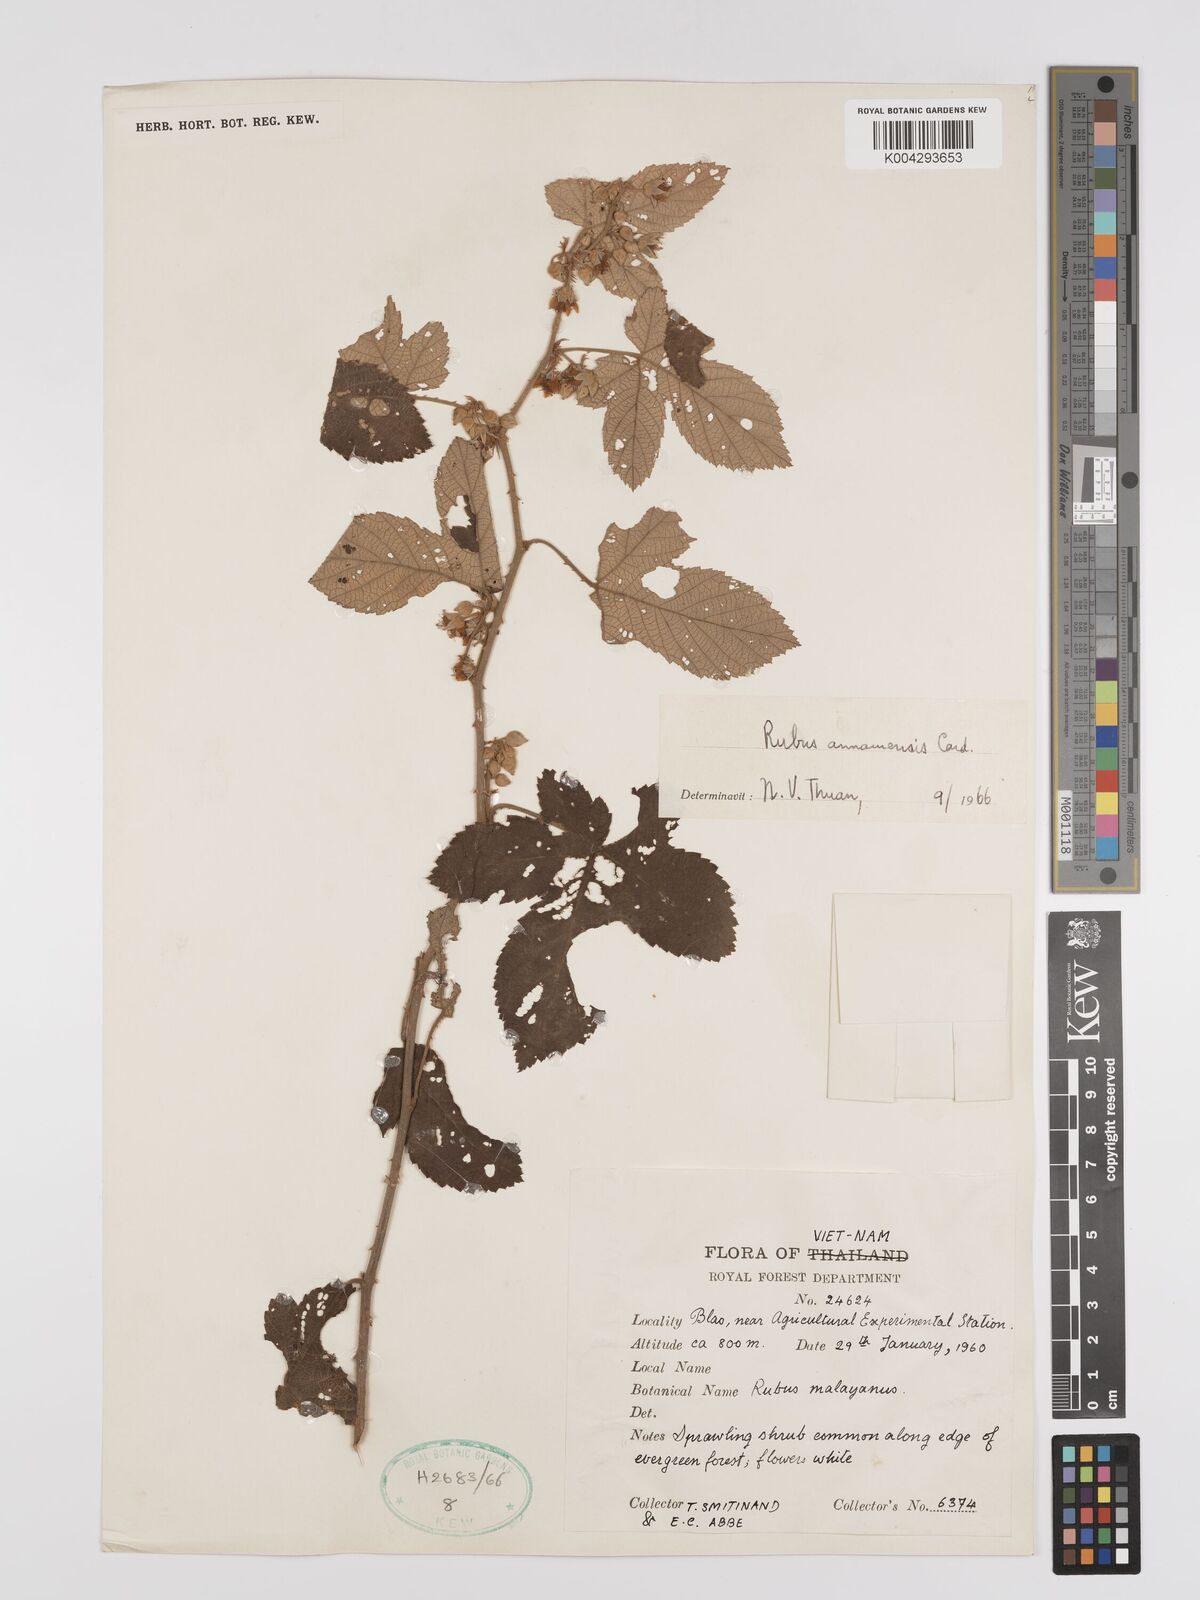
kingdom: Plantae
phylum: Tracheophyta
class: Magnoliopsida
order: Rosales
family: Rosaceae
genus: Rubus
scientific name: Rubus assamensis
